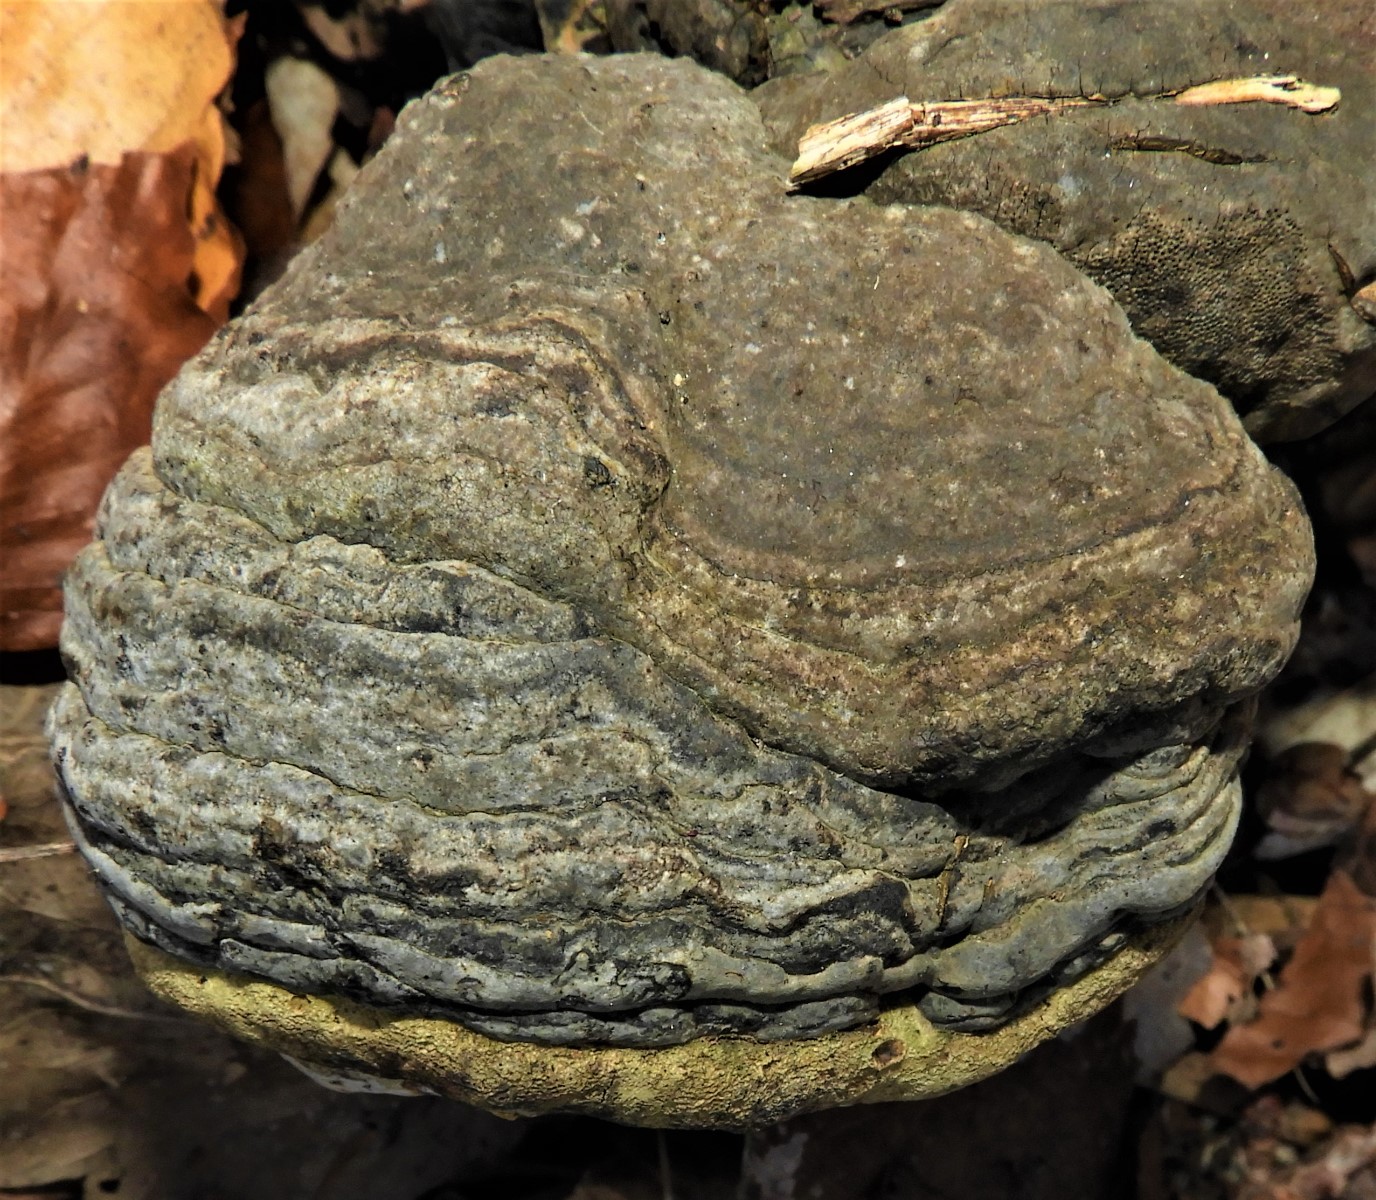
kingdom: Fungi
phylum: Basidiomycota
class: Agaricomycetes
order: Polyporales
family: Polyporaceae
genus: Fomes
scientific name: Fomes fomentarius
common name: tøndersvamp
